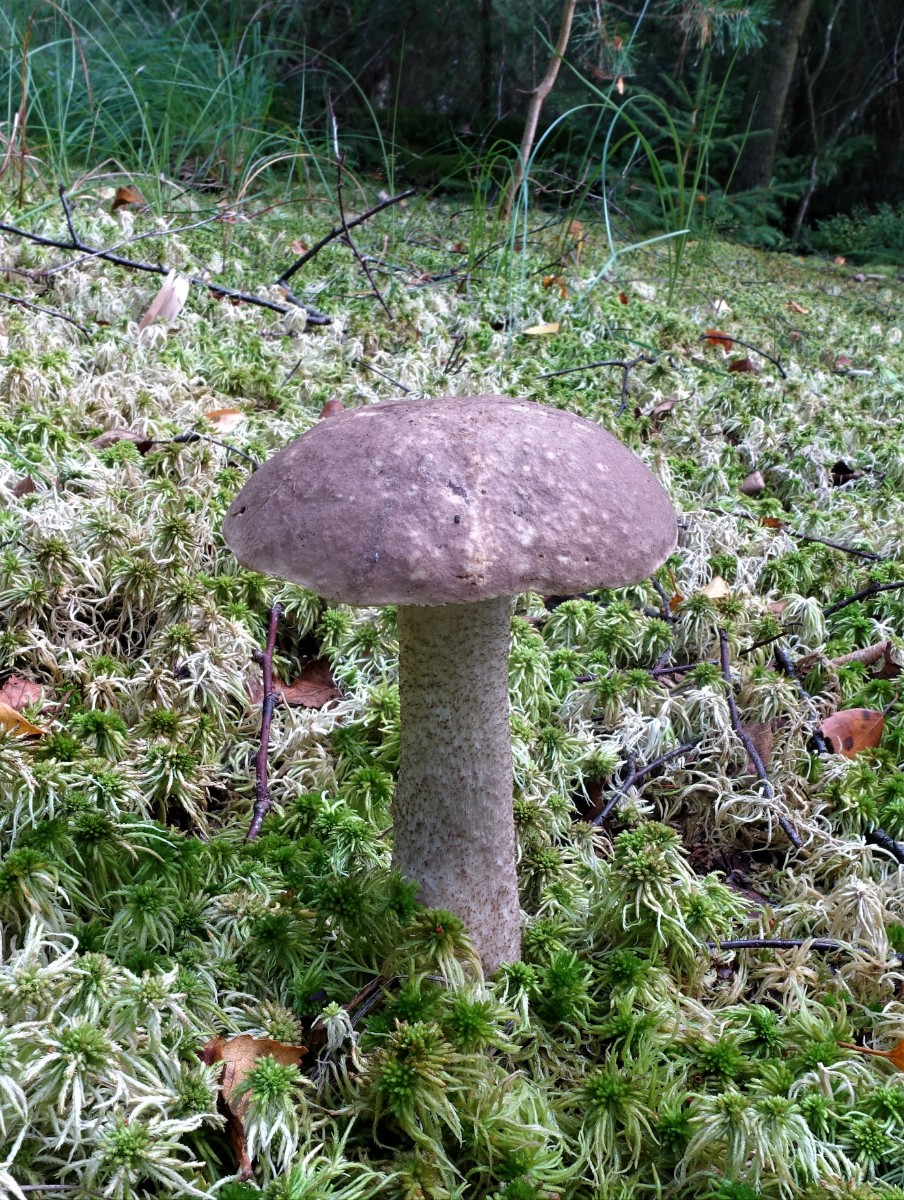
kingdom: Fungi
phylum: Basidiomycota
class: Agaricomycetes
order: Boletales
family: Boletaceae
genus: Leccinum
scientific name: Leccinum scabrum
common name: brun skælrørhat
